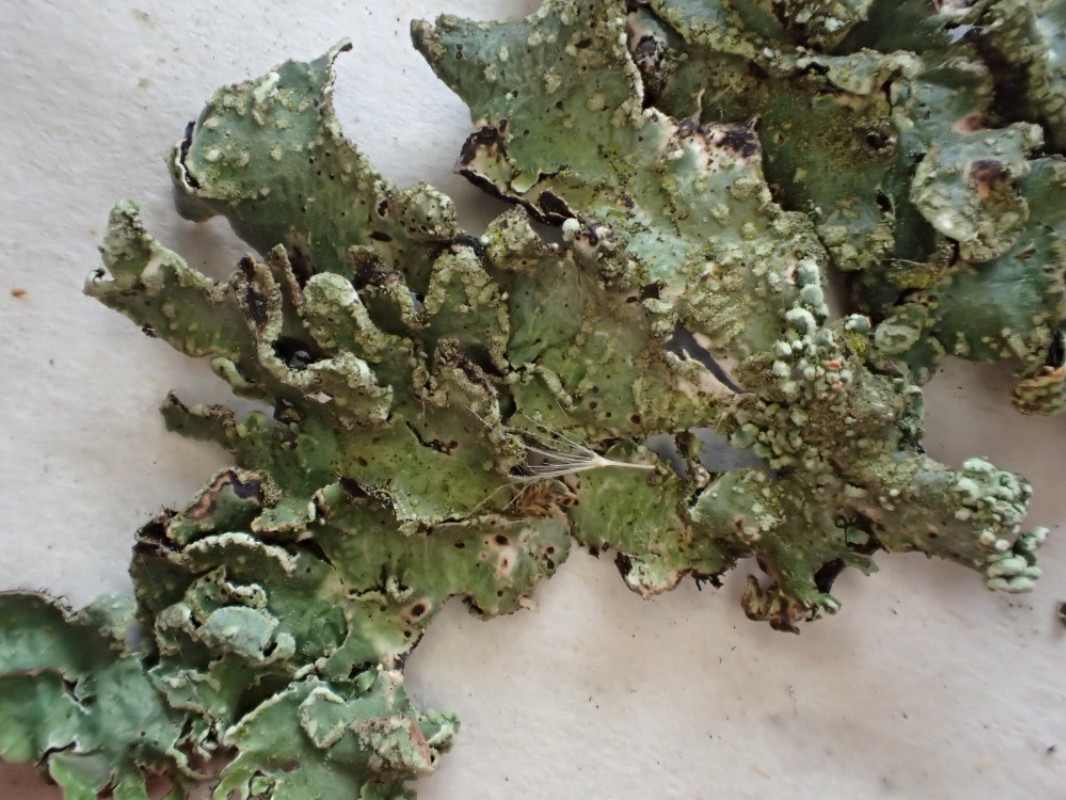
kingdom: Fungi
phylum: Ascomycota
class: Lecanoromycetes
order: Lecanorales
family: Parmeliaceae
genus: Parmelia
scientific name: Parmelia sulcata
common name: rynket skållav
